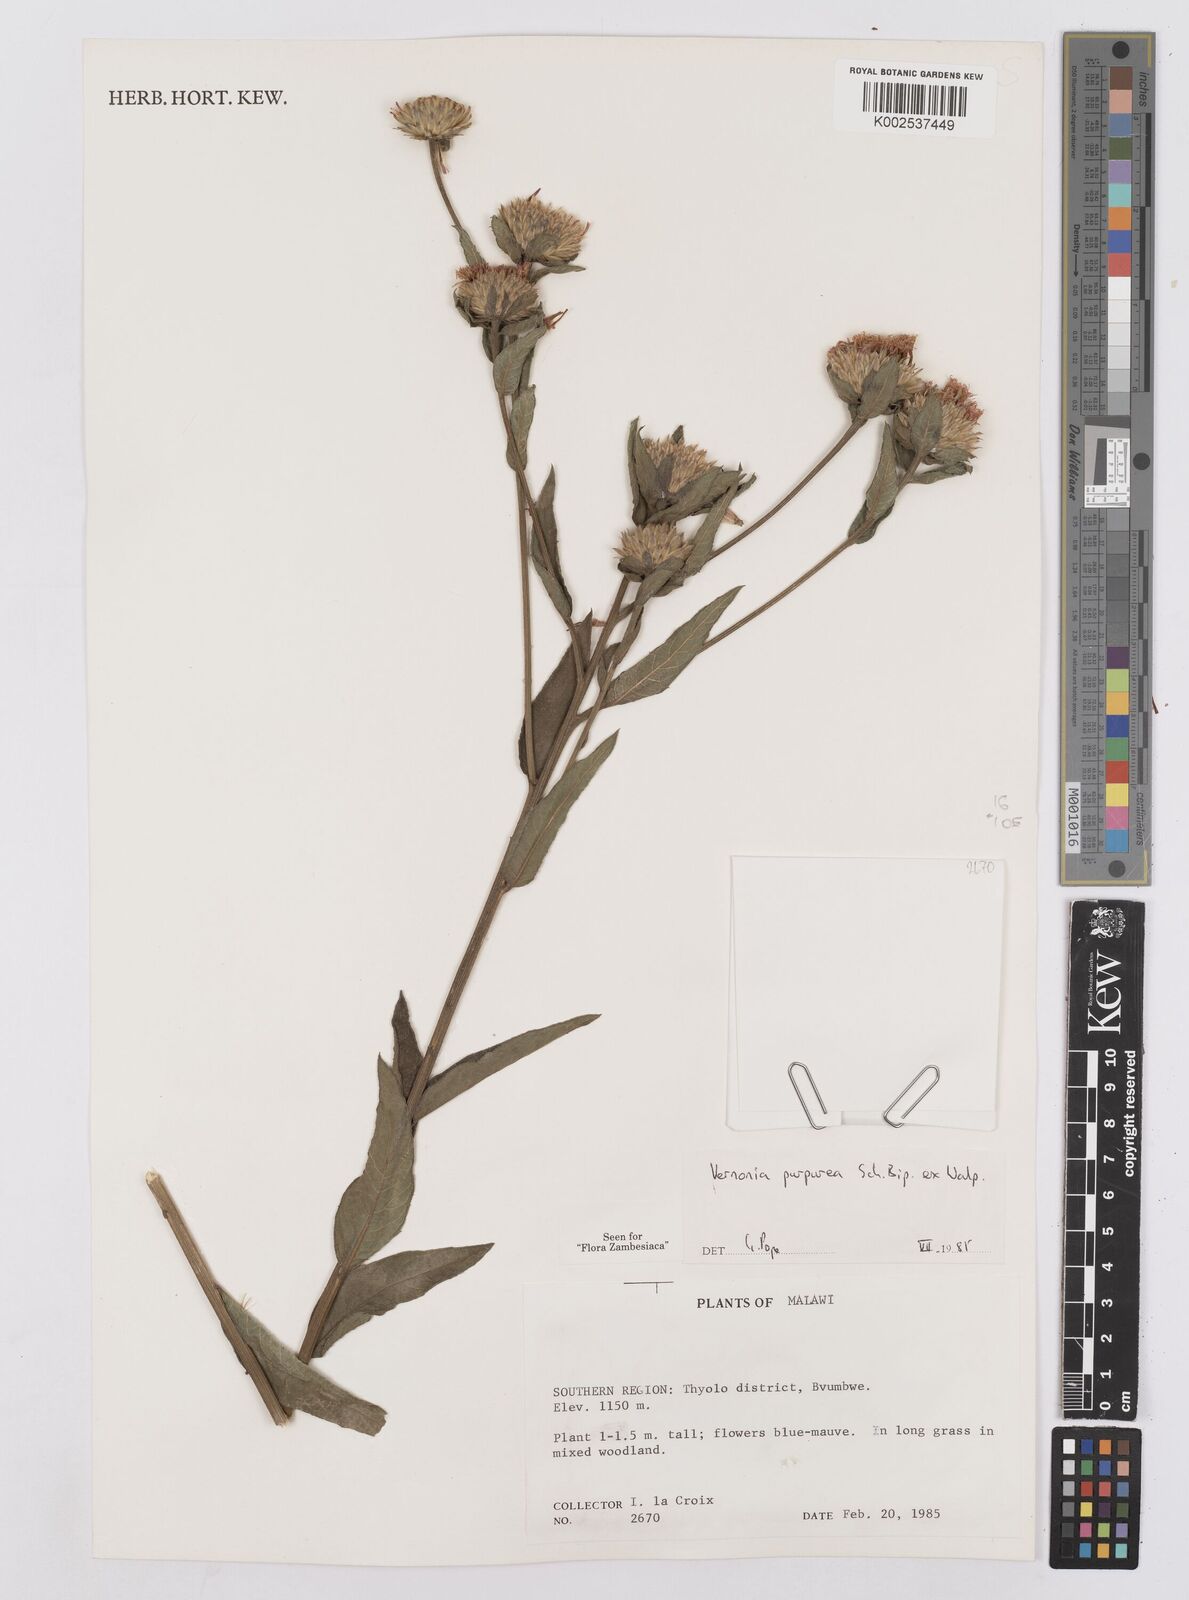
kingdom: Plantae
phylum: Tracheophyta
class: Magnoliopsida
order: Asterales
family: Asteraceae
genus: Nothovernonia
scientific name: Nothovernonia purpurea
